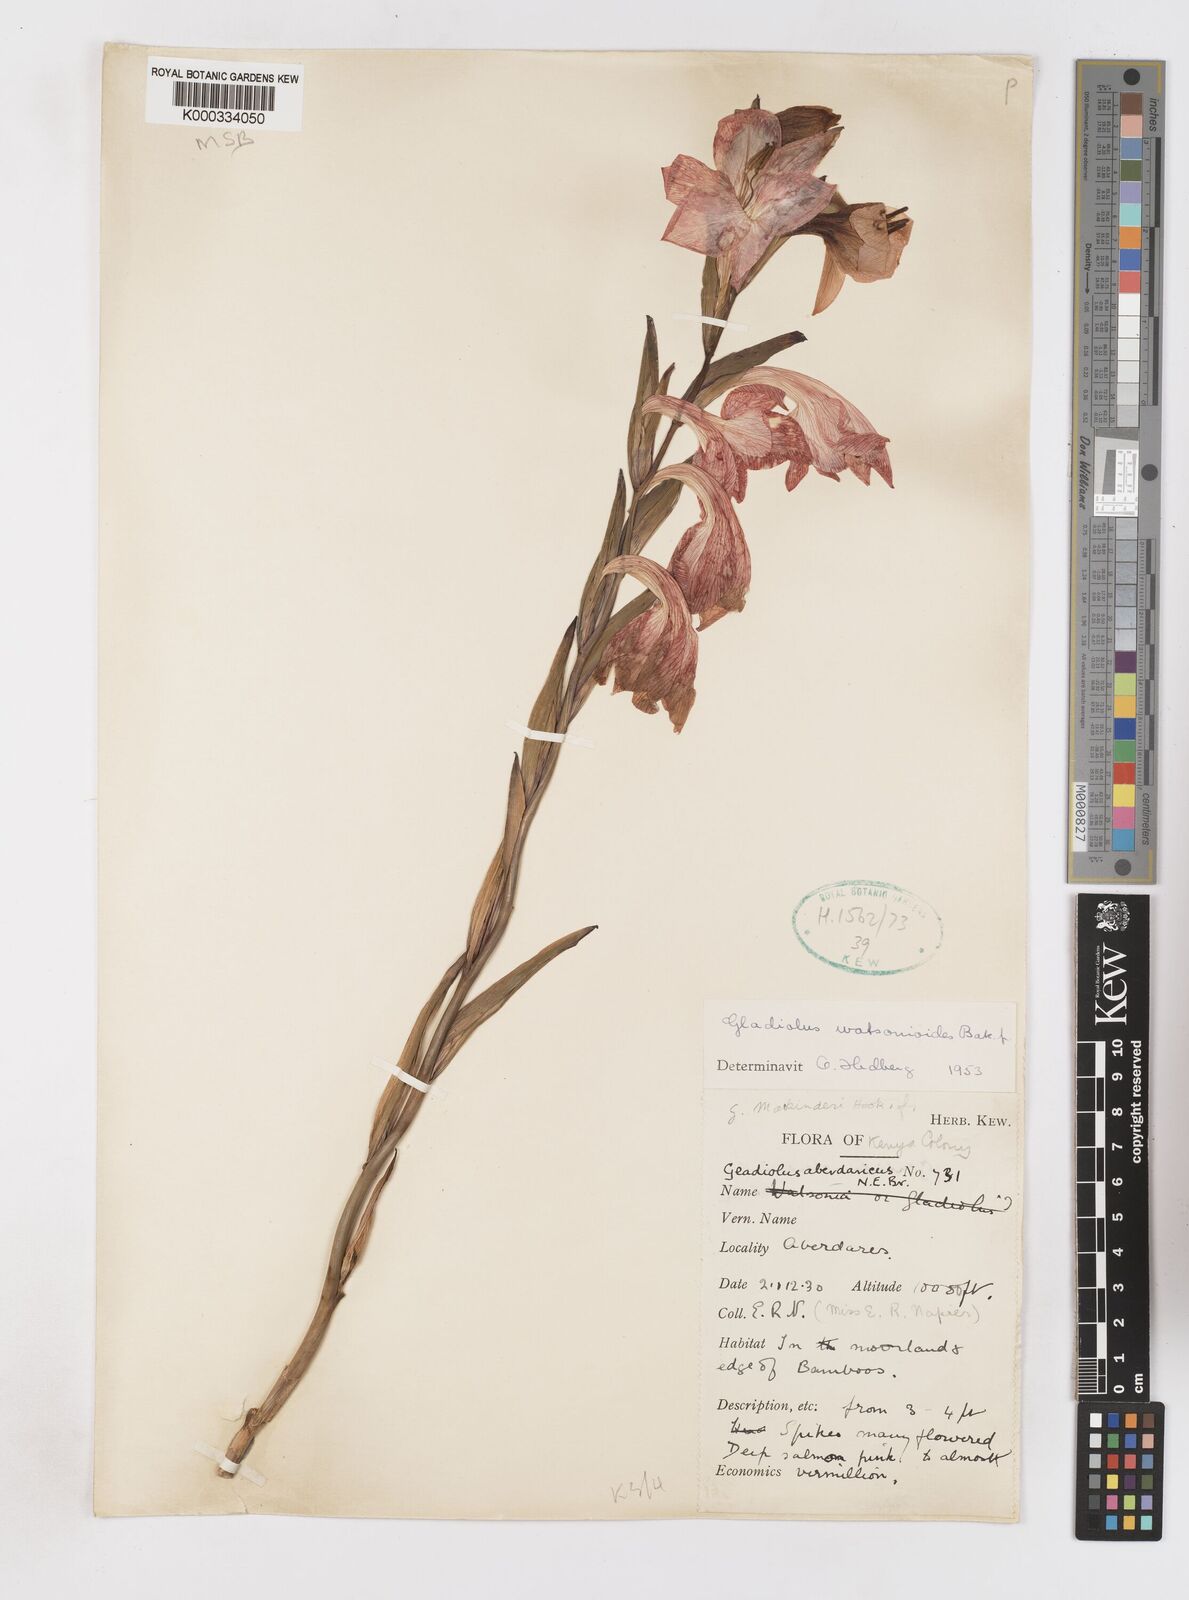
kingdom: Plantae
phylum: Tracheophyta
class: Liliopsida
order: Asparagales
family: Iridaceae
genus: Gladiolus
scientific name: Gladiolus watsonioides
